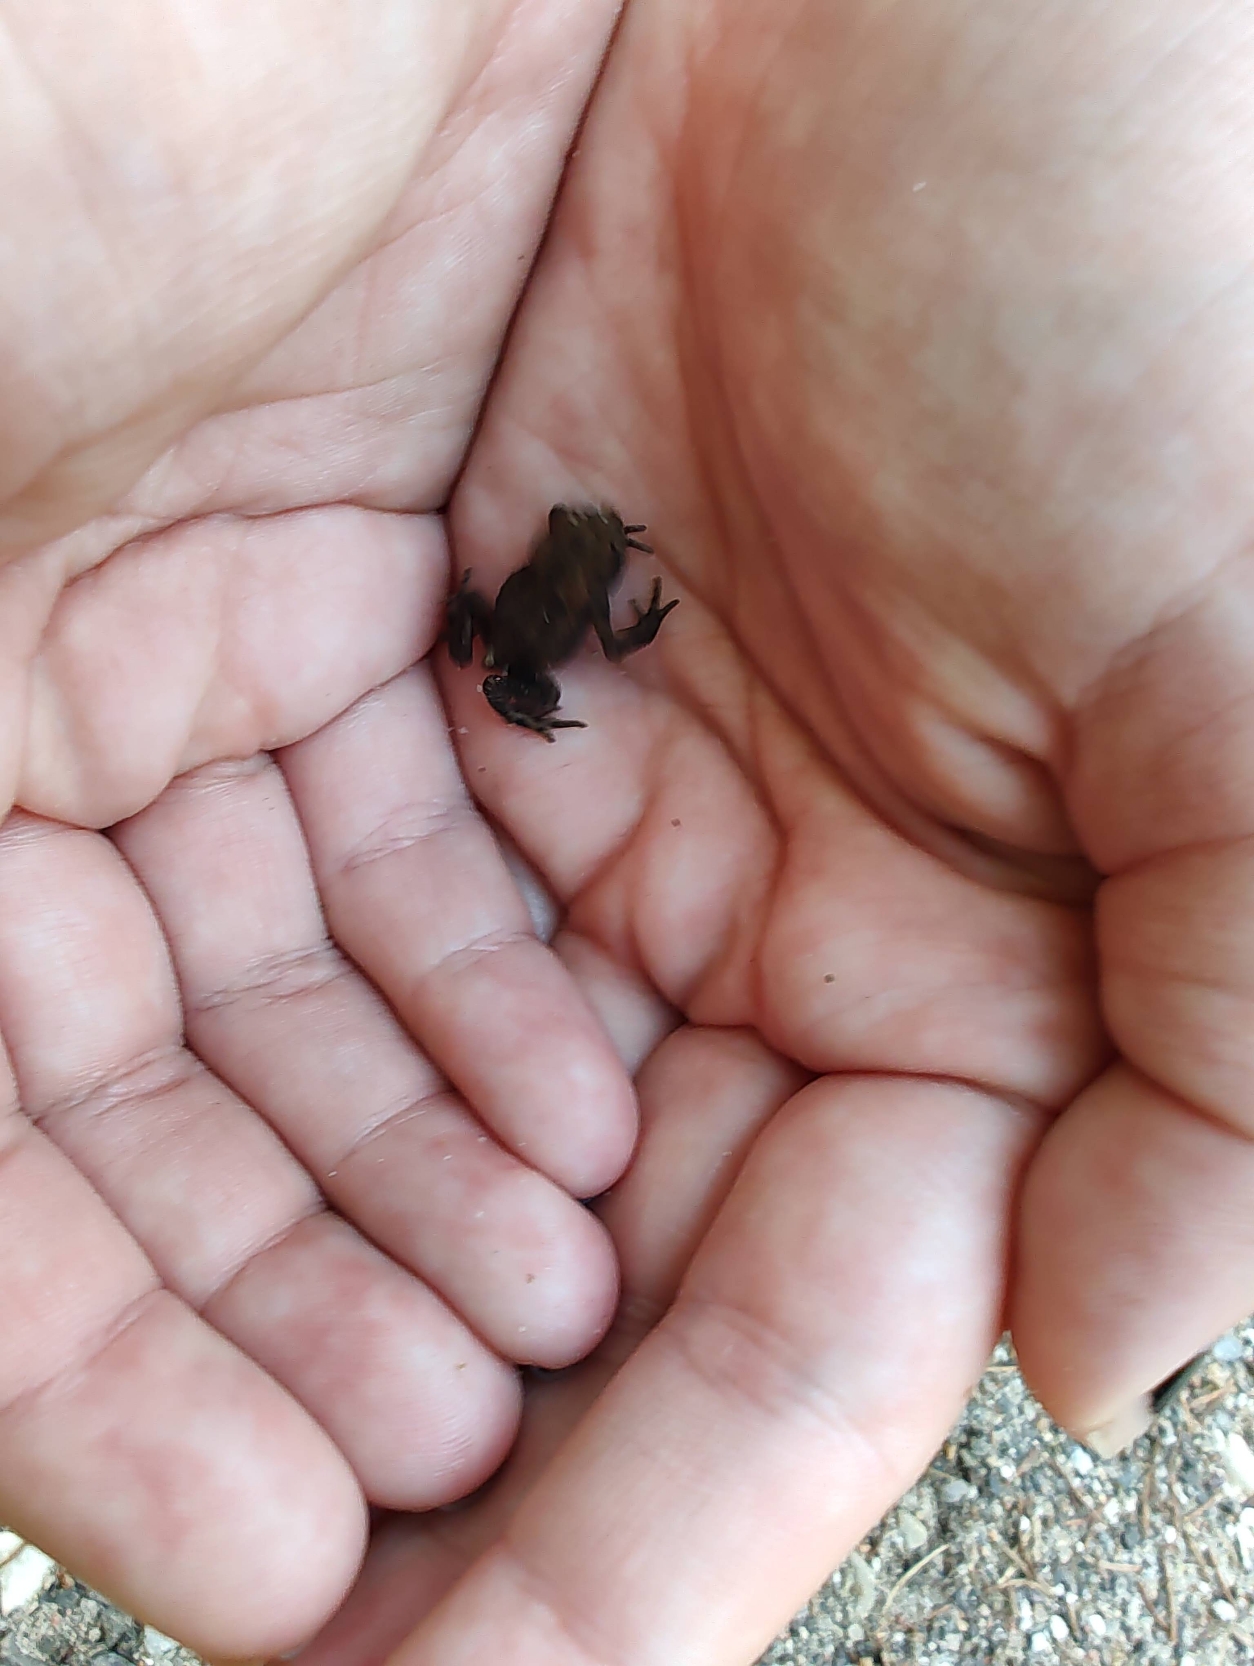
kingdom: Animalia
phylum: Chordata
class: Amphibia
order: Anura
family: Bufonidae
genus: Bufo
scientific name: Bufo bufo
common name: Skrubtudse
